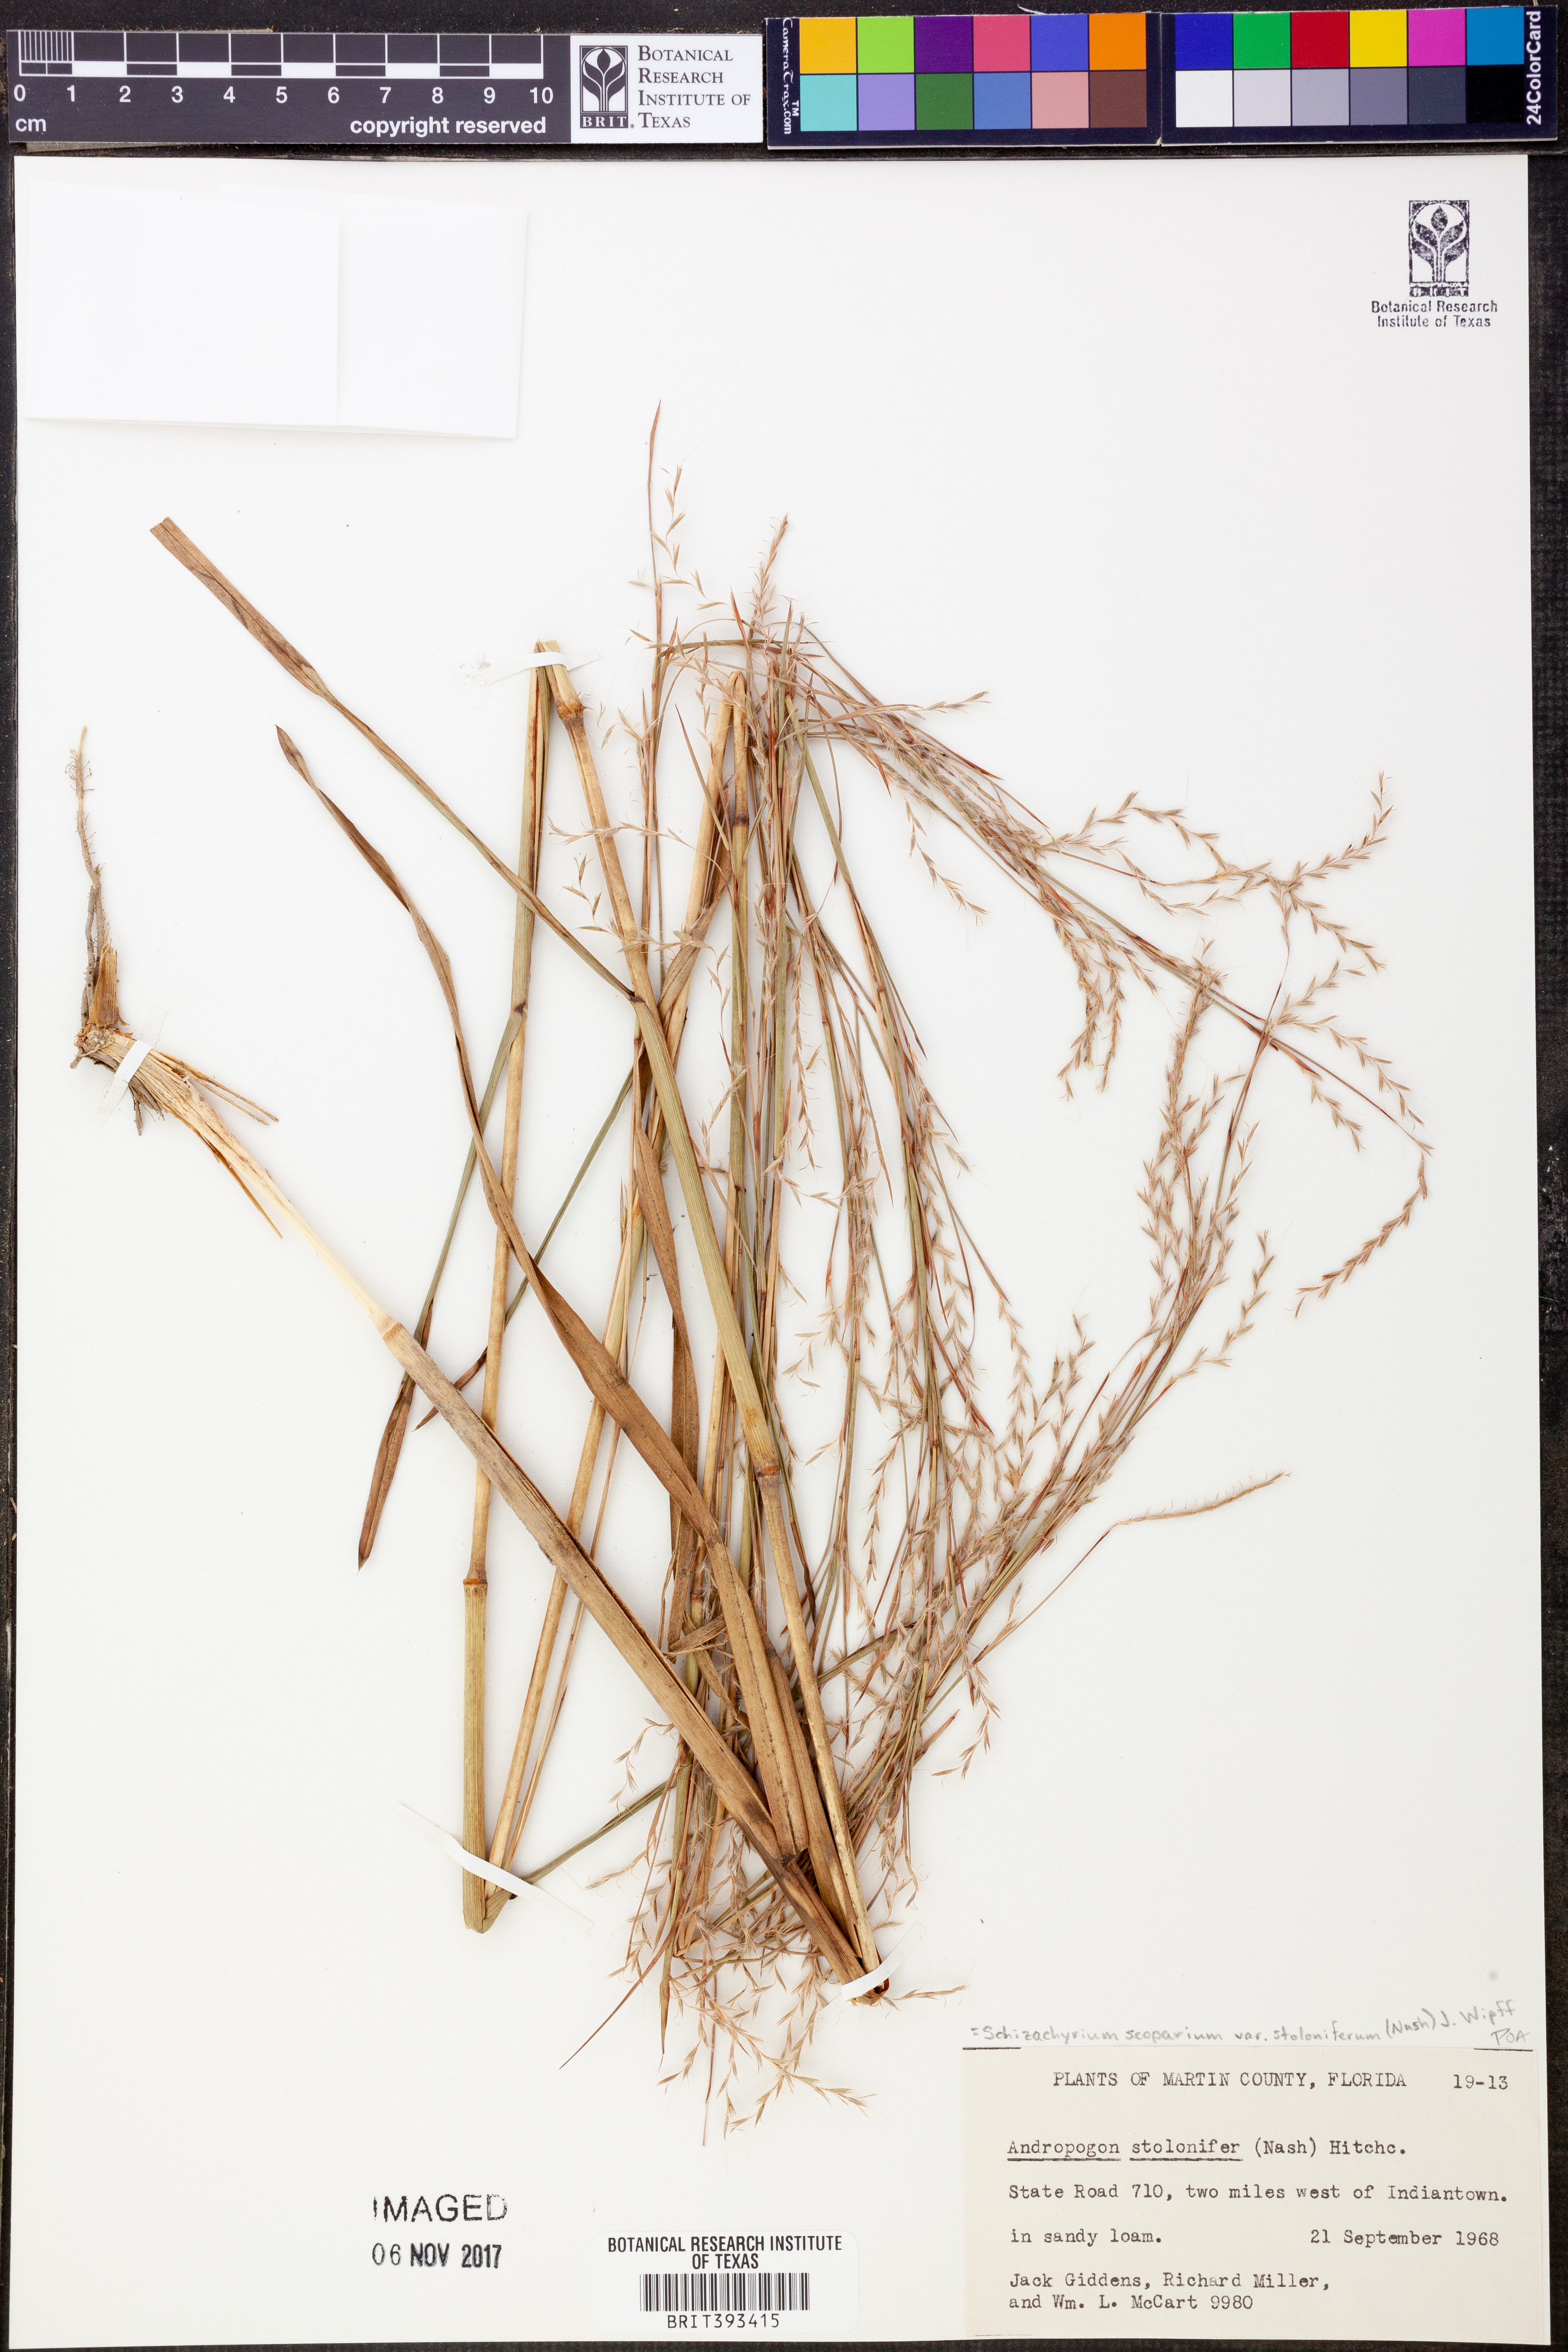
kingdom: Plantae
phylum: Tracheophyta
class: Liliopsida
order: Poales
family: Poaceae
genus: Andropogon
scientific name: Andropogon stolonifer
